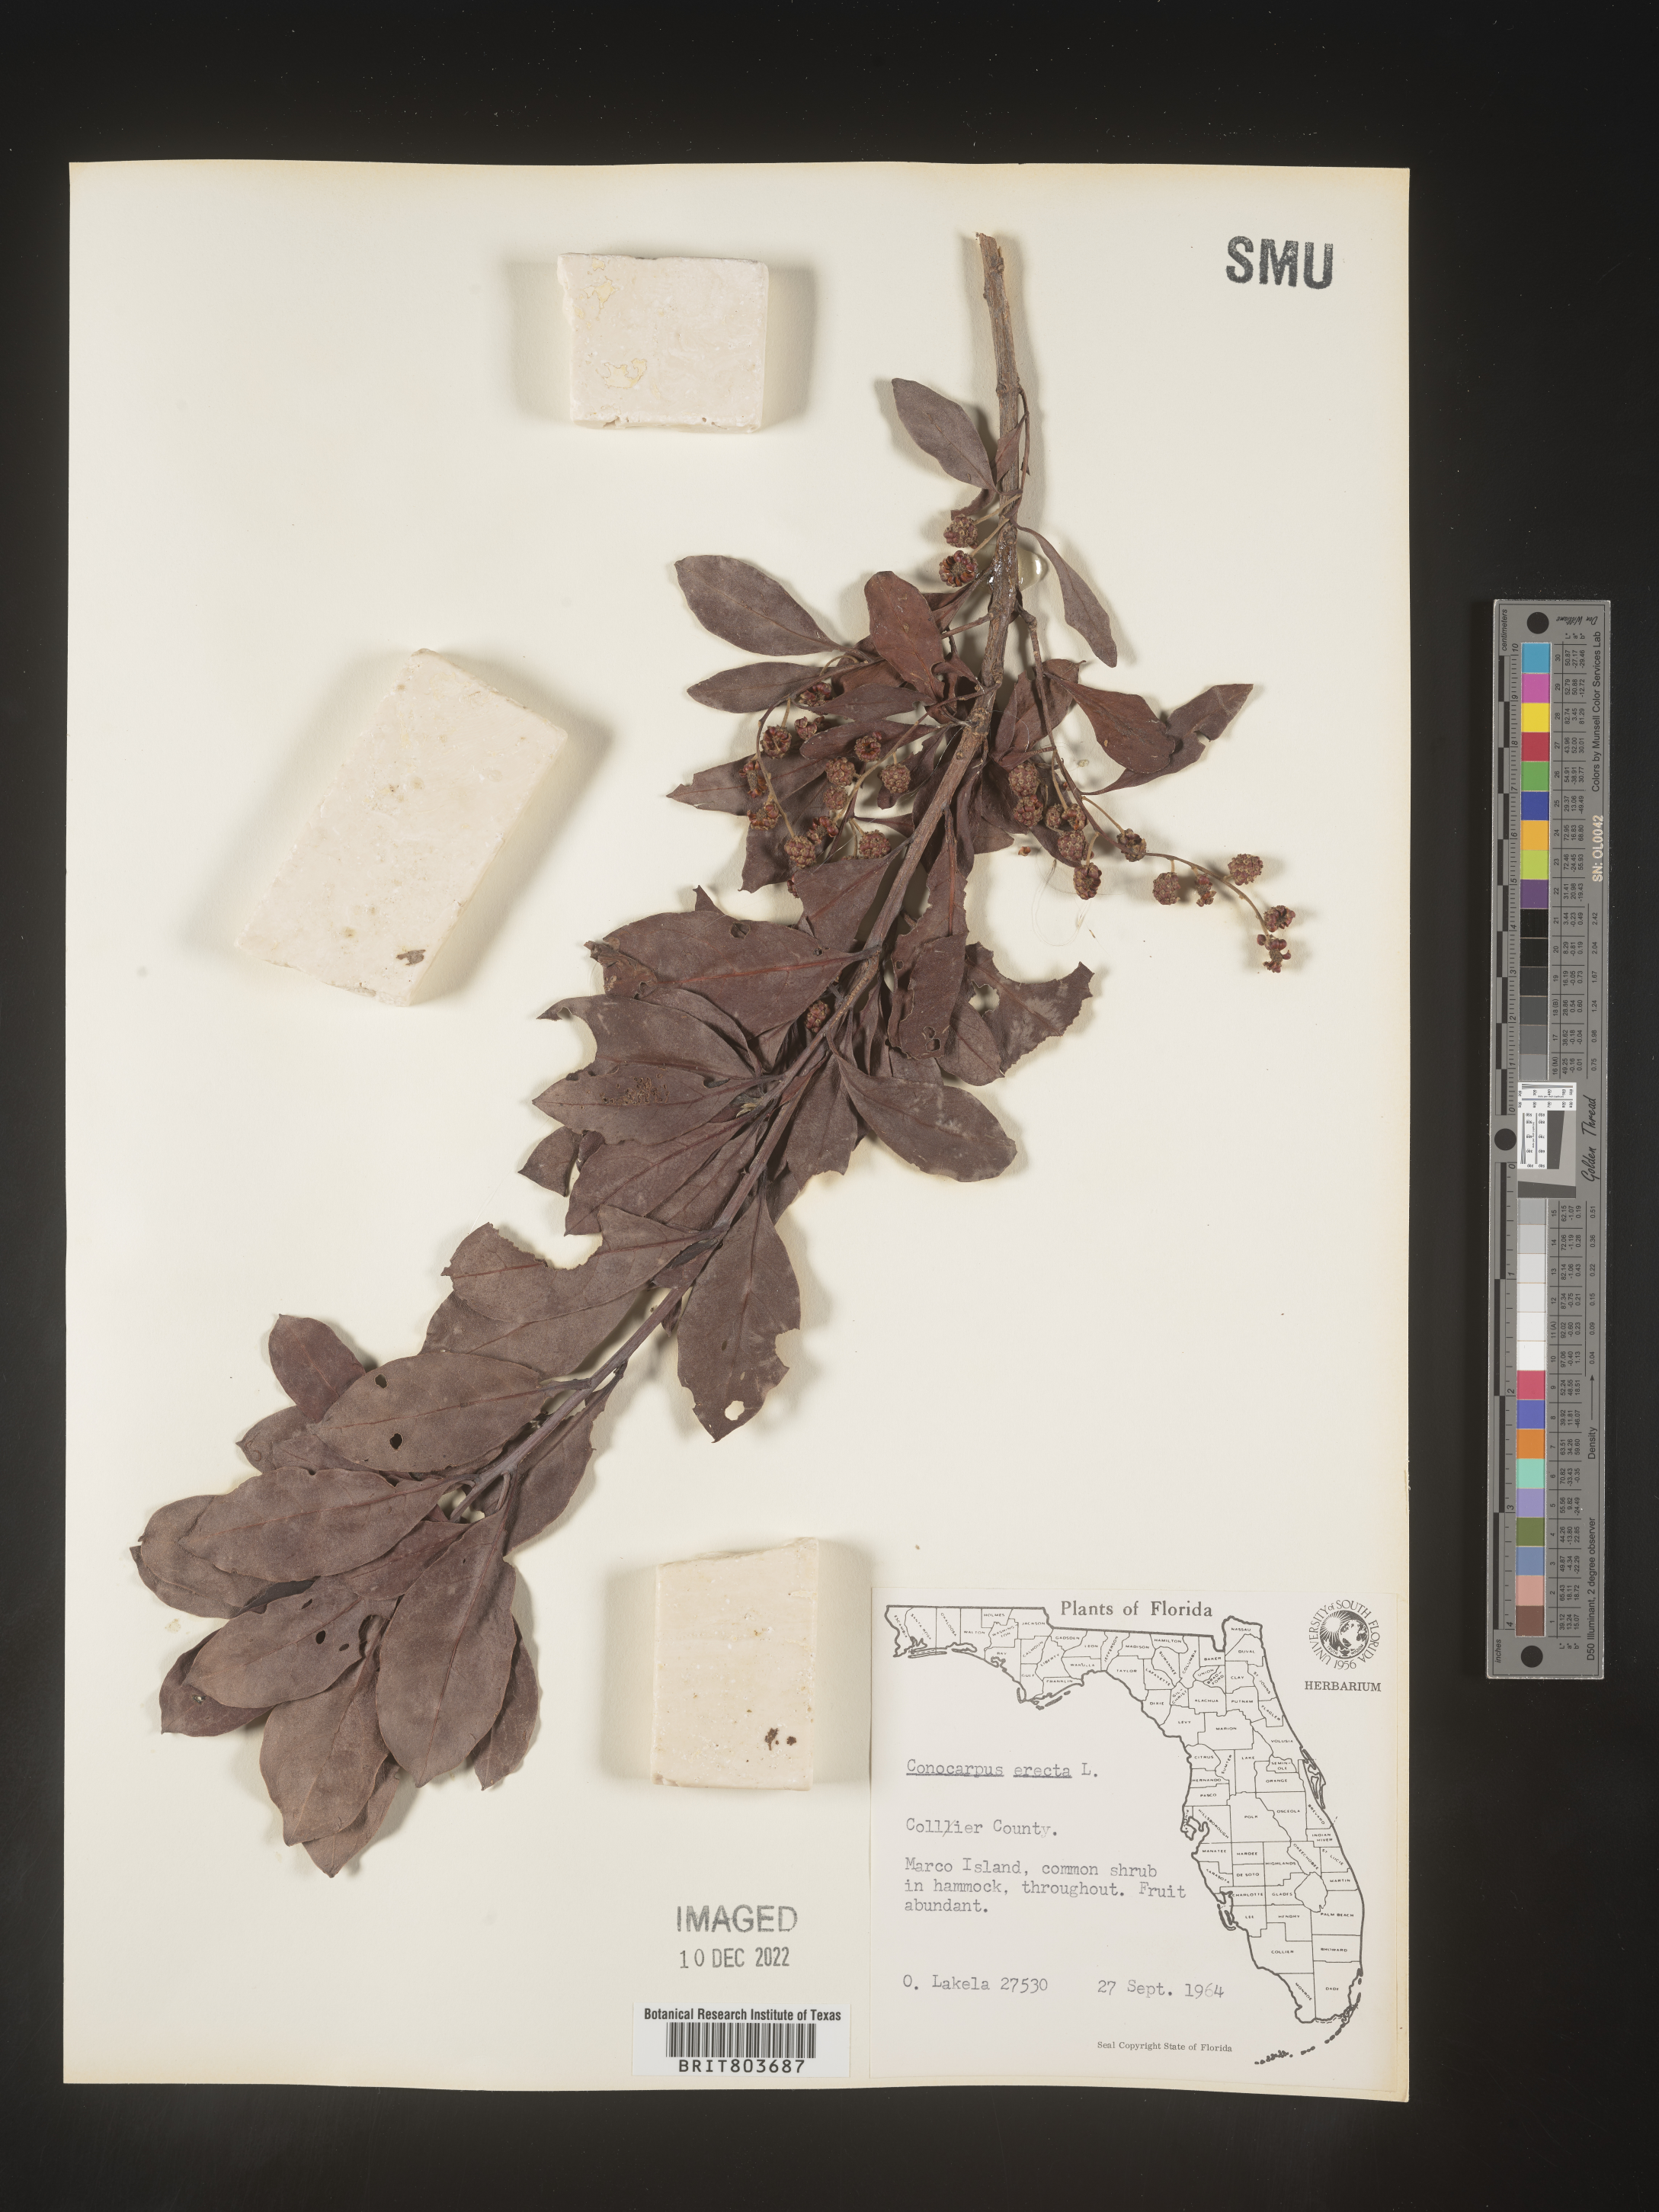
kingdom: Plantae
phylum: Tracheophyta
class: Magnoliopsida
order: Myrtales
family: Combretaceae
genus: Conocarpus
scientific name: Conocarpus erectus
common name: Button mangrove
